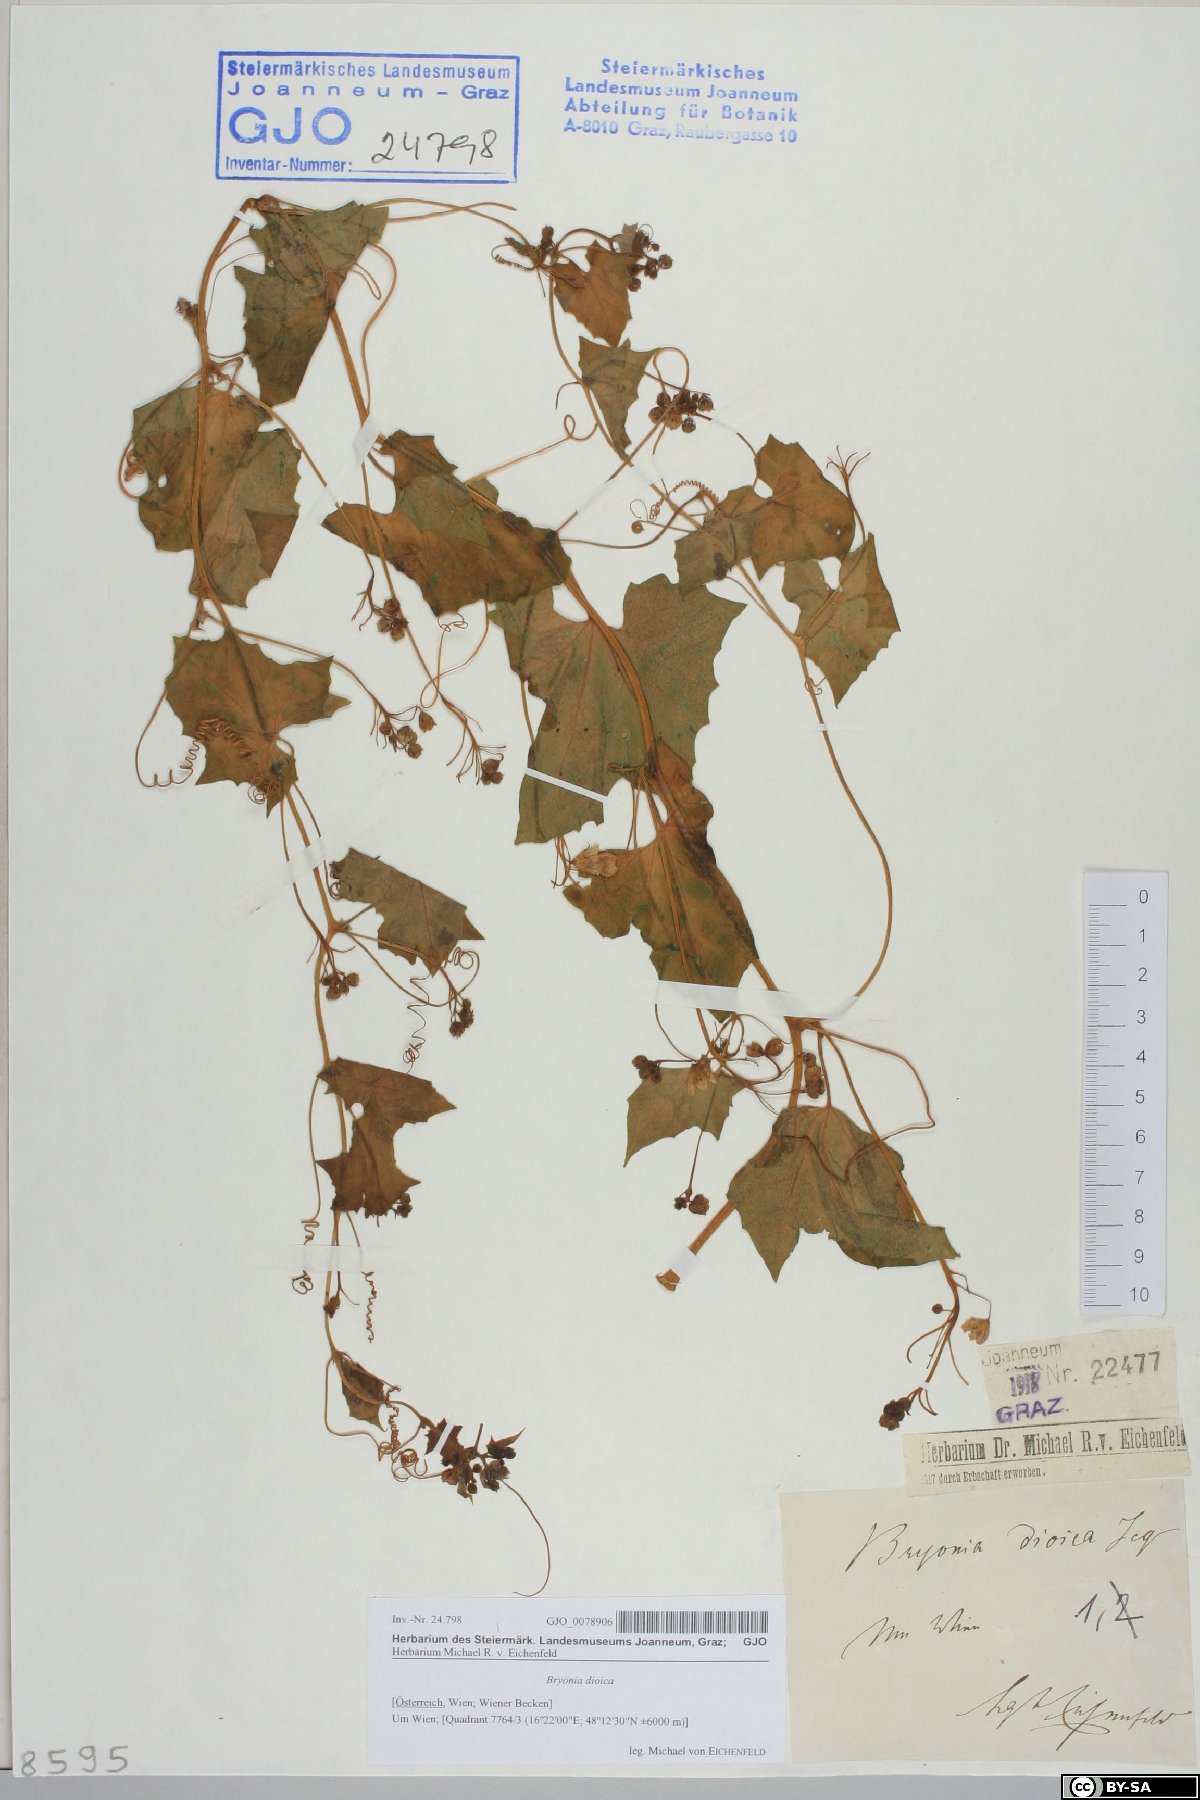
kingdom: Plantae
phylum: Tracheophyta
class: Magnoliopsida
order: Cucurbitales
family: Cucurbitaceae
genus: Bryonia
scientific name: Bryonia dioica
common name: White bryony
